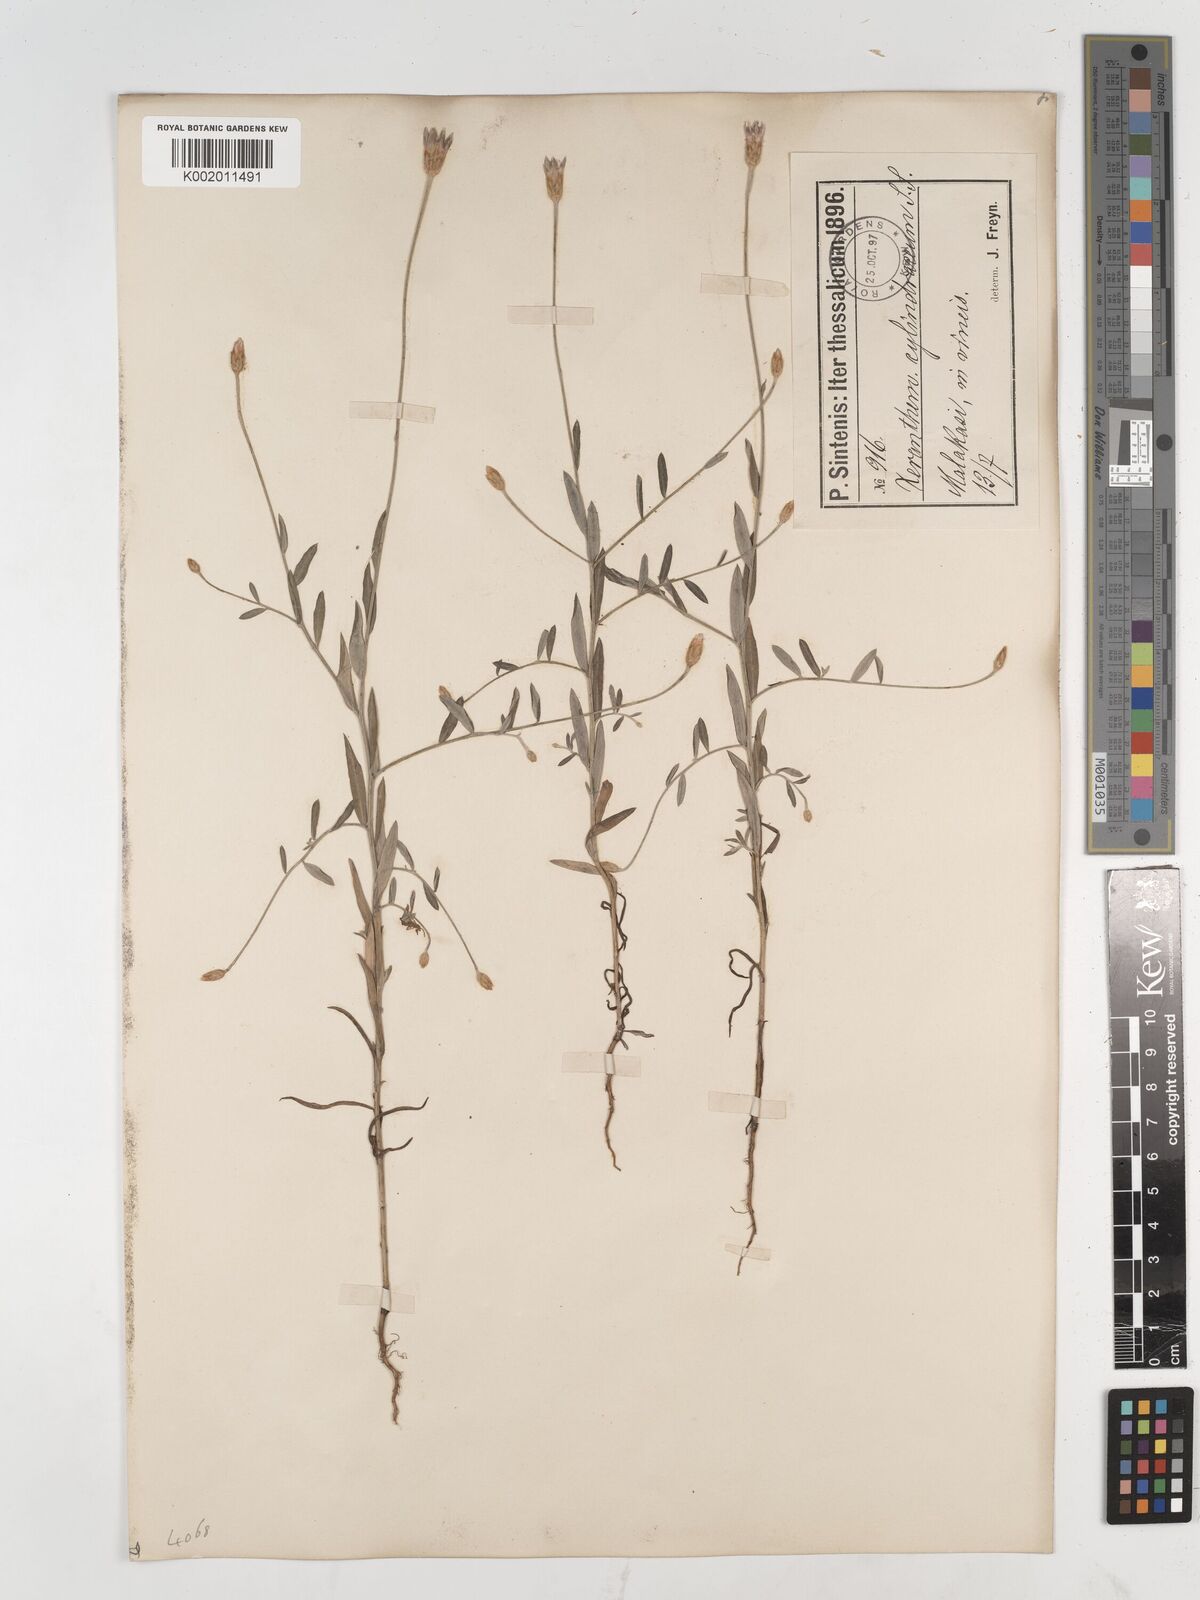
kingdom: Plantae
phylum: Tracheophyta
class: Magnoliopsida
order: Asterales
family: Asteraceae
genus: Xeranthemum
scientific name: Xeranthemum
